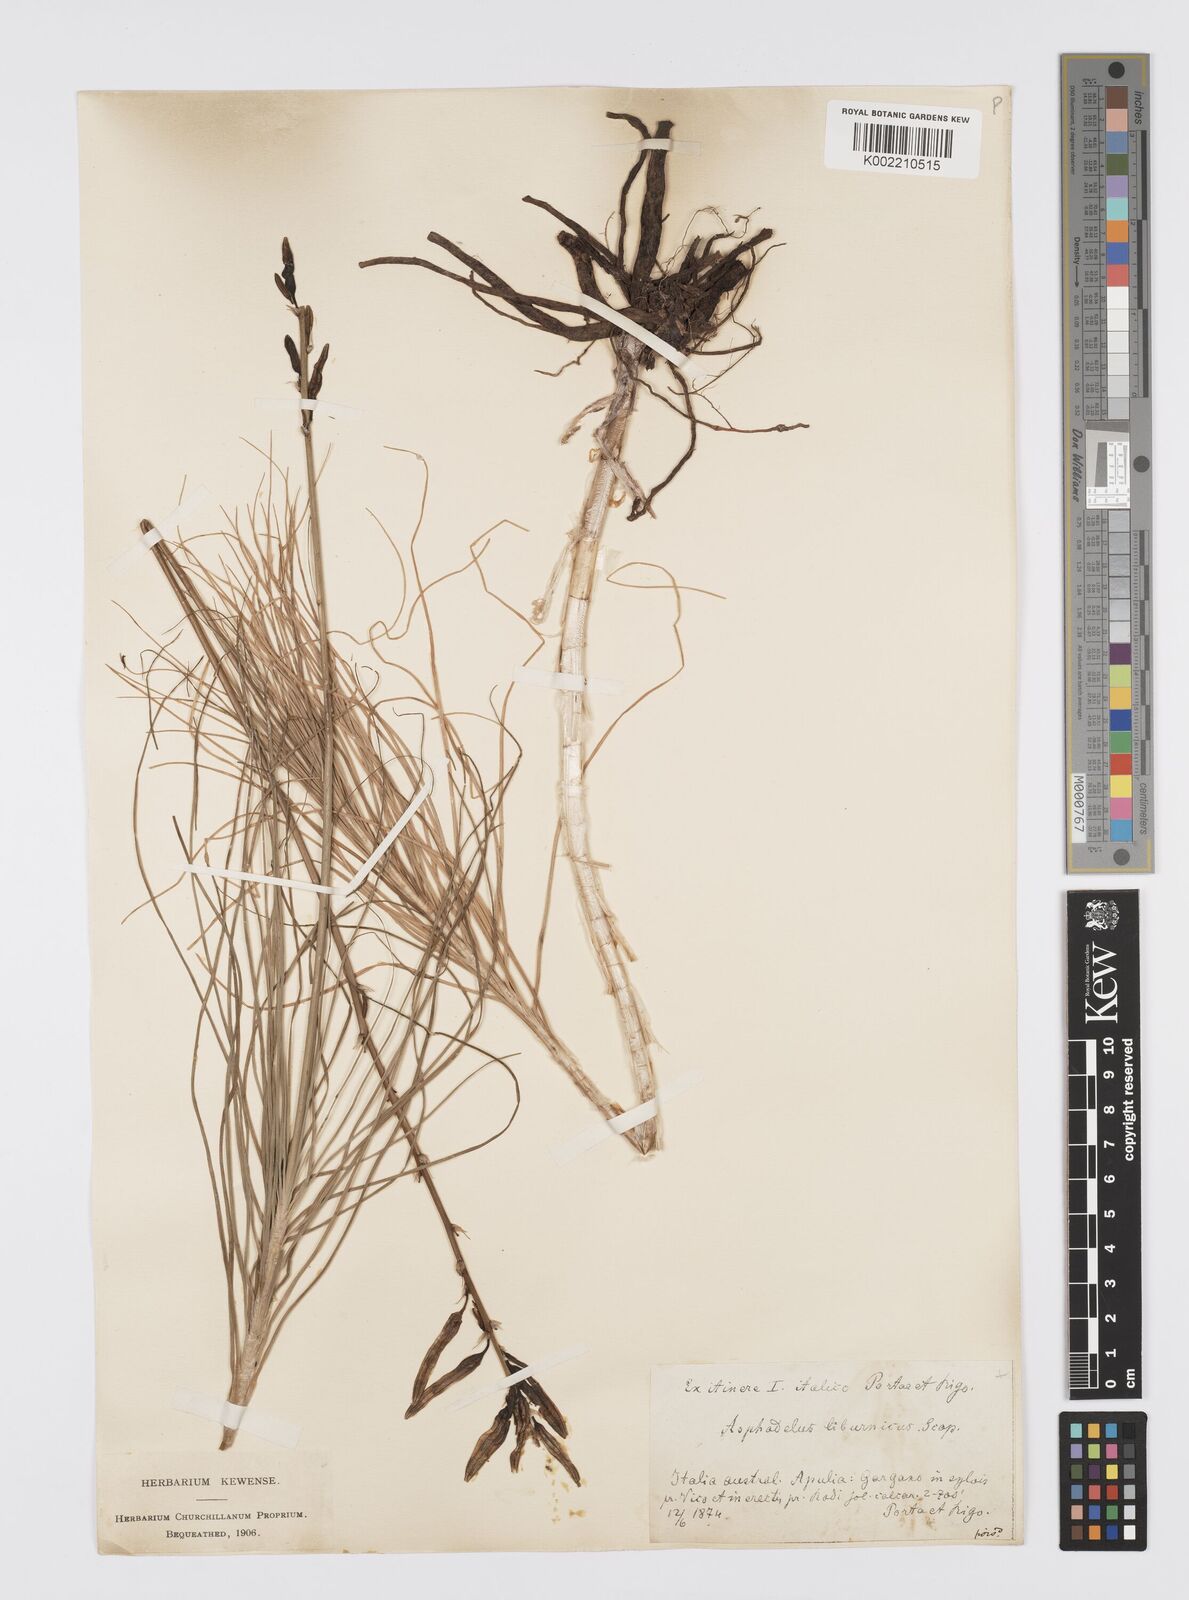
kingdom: Plantae
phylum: Tracheophyta
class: Liliopsida
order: Asparagales
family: Asphodelaceae
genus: Asphodeline
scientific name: Asphodeline liburnica
